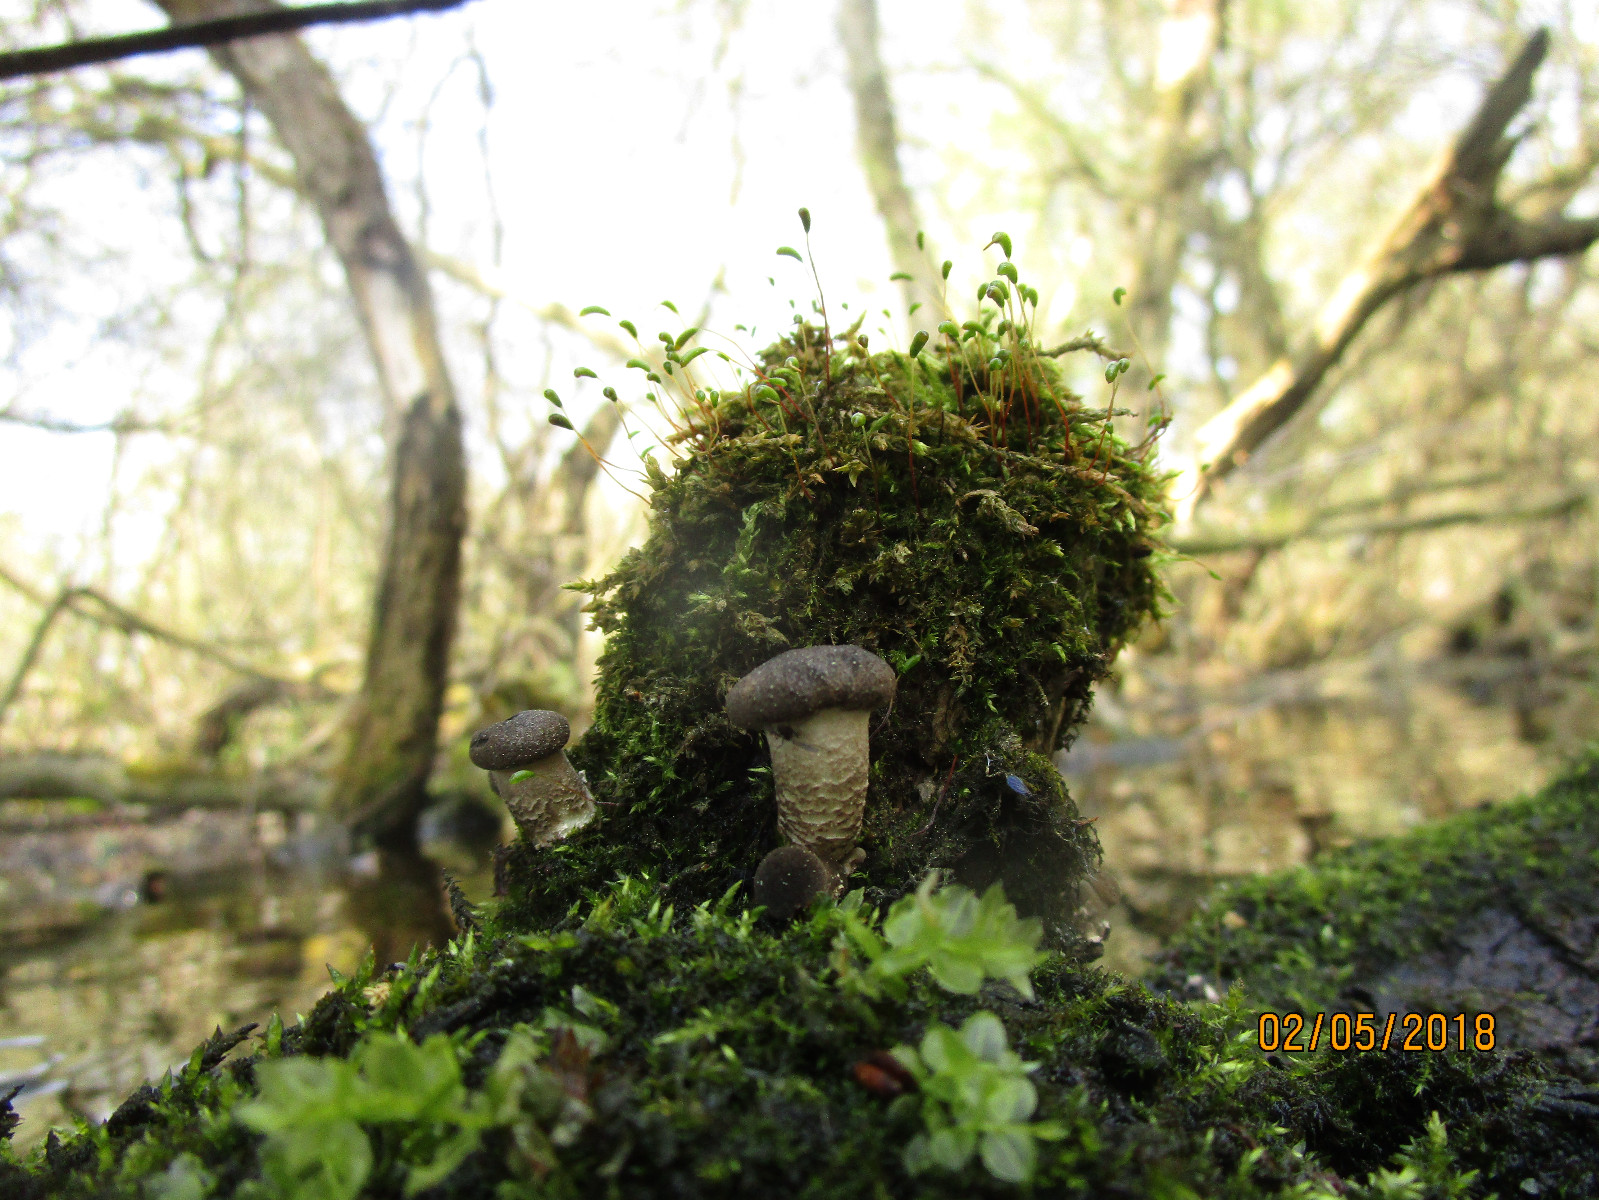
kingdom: Fungi
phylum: Basidiomycota
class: Agaricomycetes
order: Polyporales
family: Polyporaceae
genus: Lentinus
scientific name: Lentinus tigrinus
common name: tigerhat
